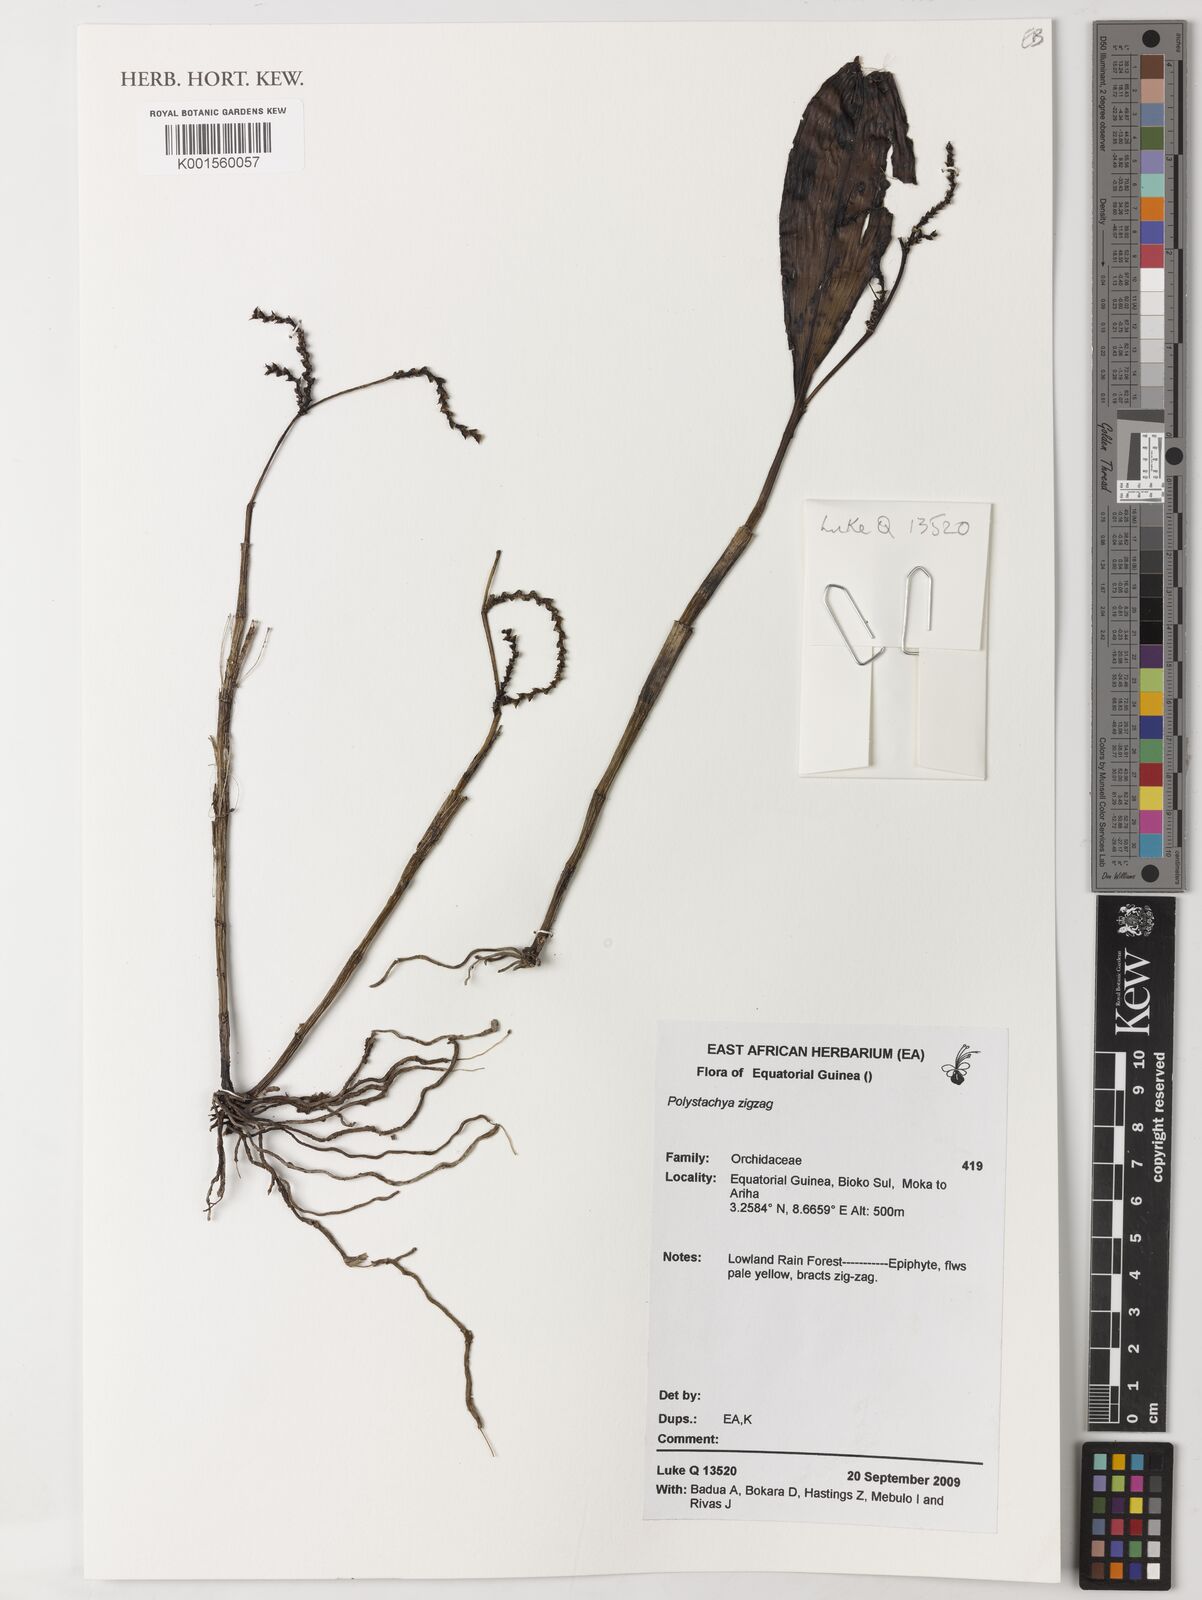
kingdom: Plantae
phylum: Tracheophyta
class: Liliopsida
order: Asparagales
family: Orchidaceae
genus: Polystachya
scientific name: Polystachya
